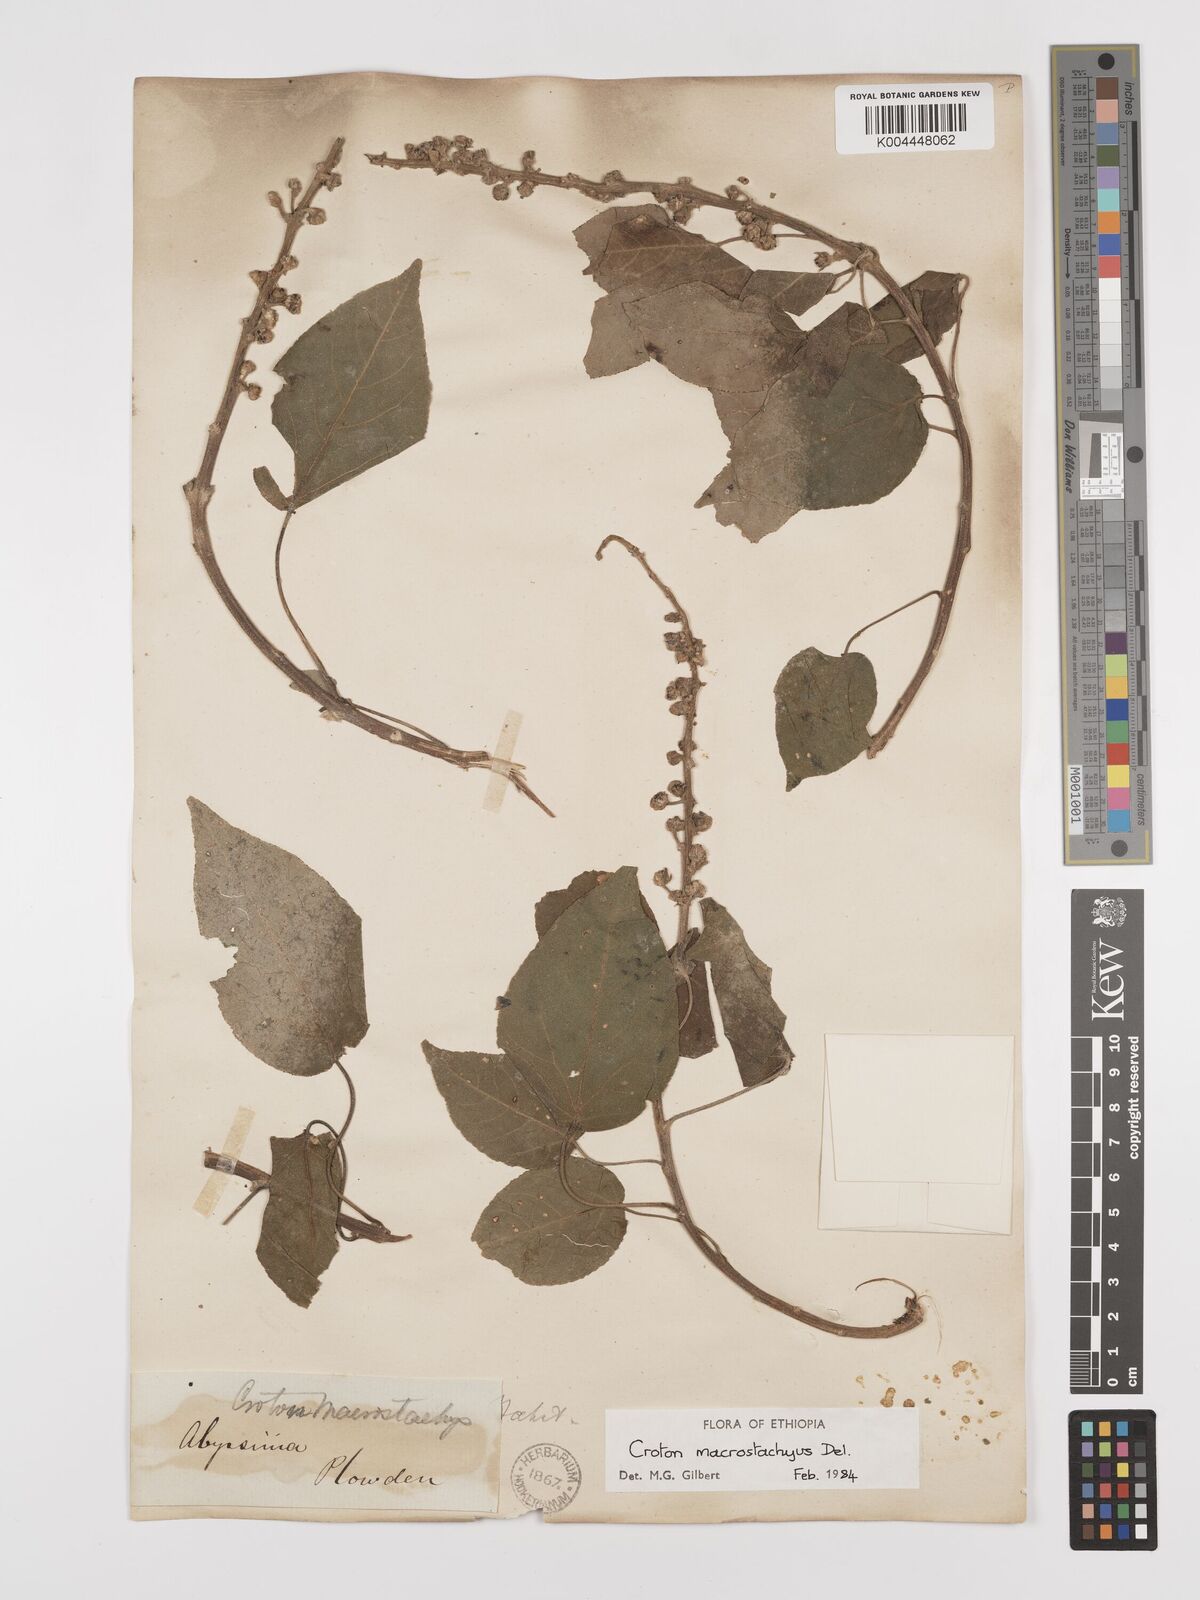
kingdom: Plantae
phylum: Tracheophyta
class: Magnoliopsida
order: Malpighiales
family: Euphorbiaceae
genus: Croton
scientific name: Croton macrostachyus
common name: Mutundu
